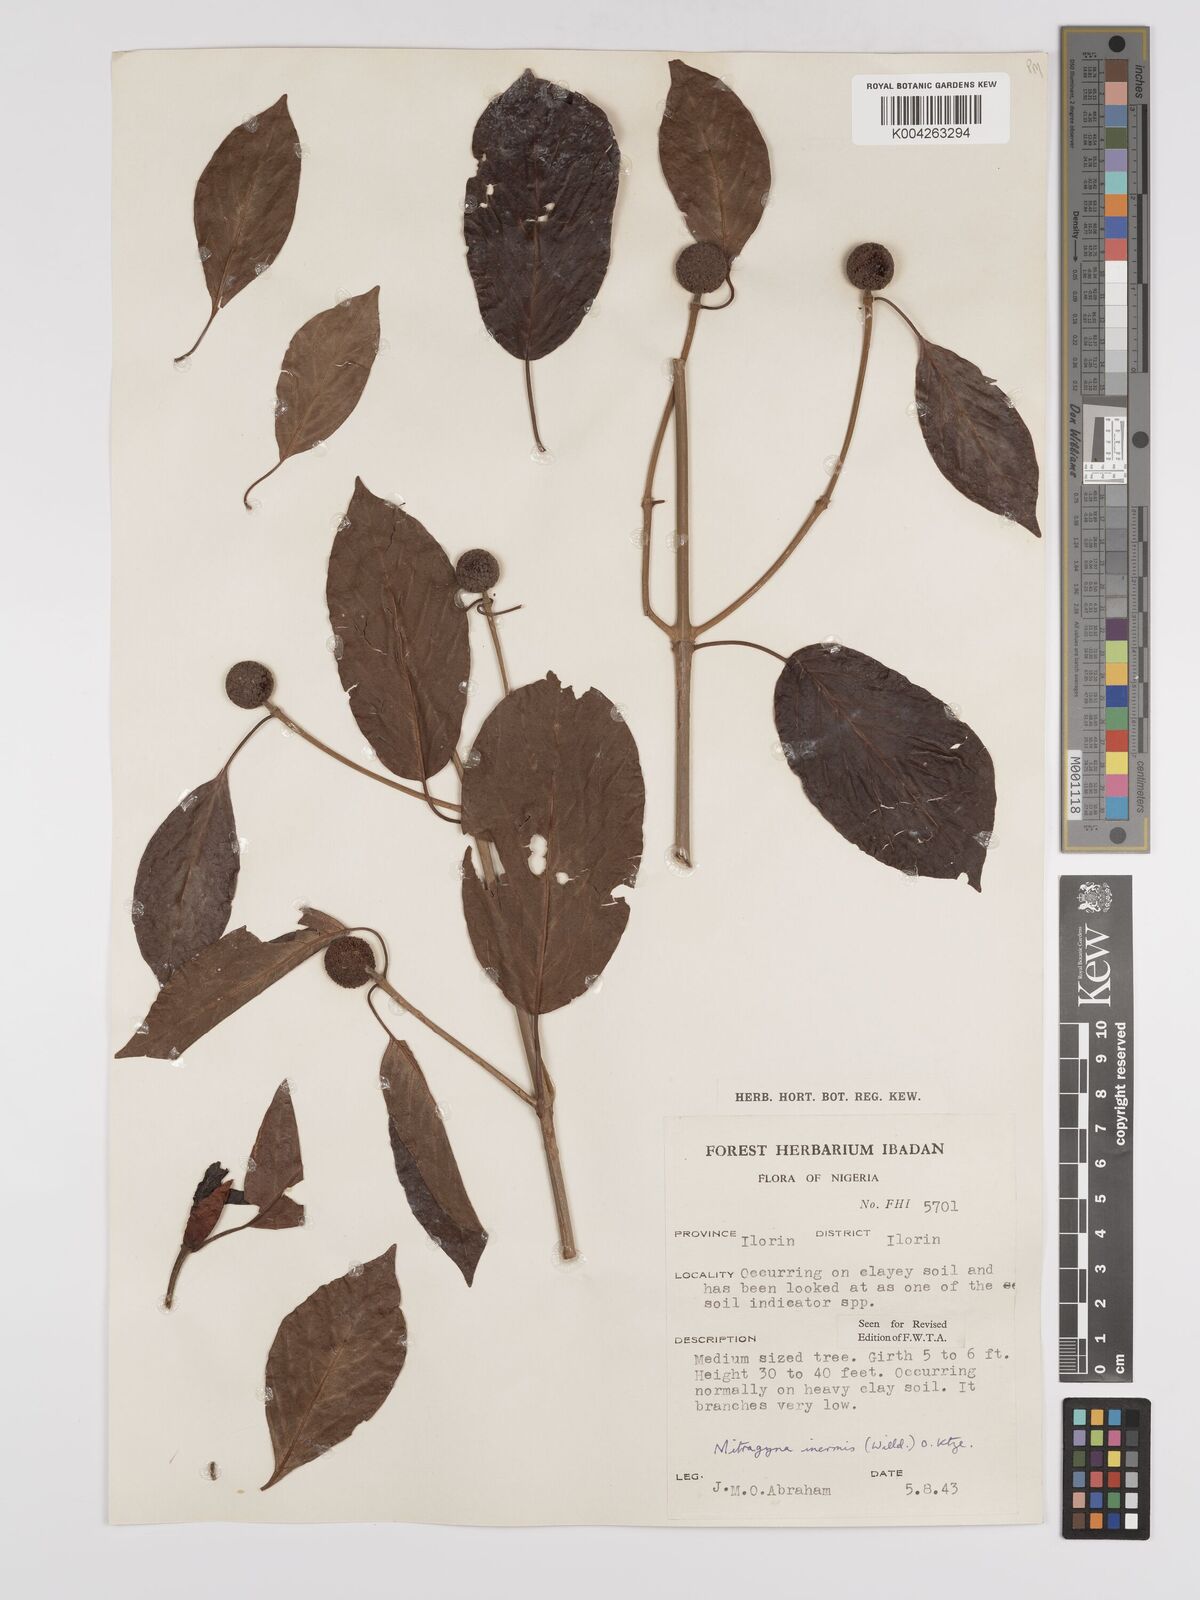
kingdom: Plantae
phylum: Tracheophyta
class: Magnoliopsida
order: Gentianales
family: Rubiaceae
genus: Mitragyna
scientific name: Mitragyna inermis
